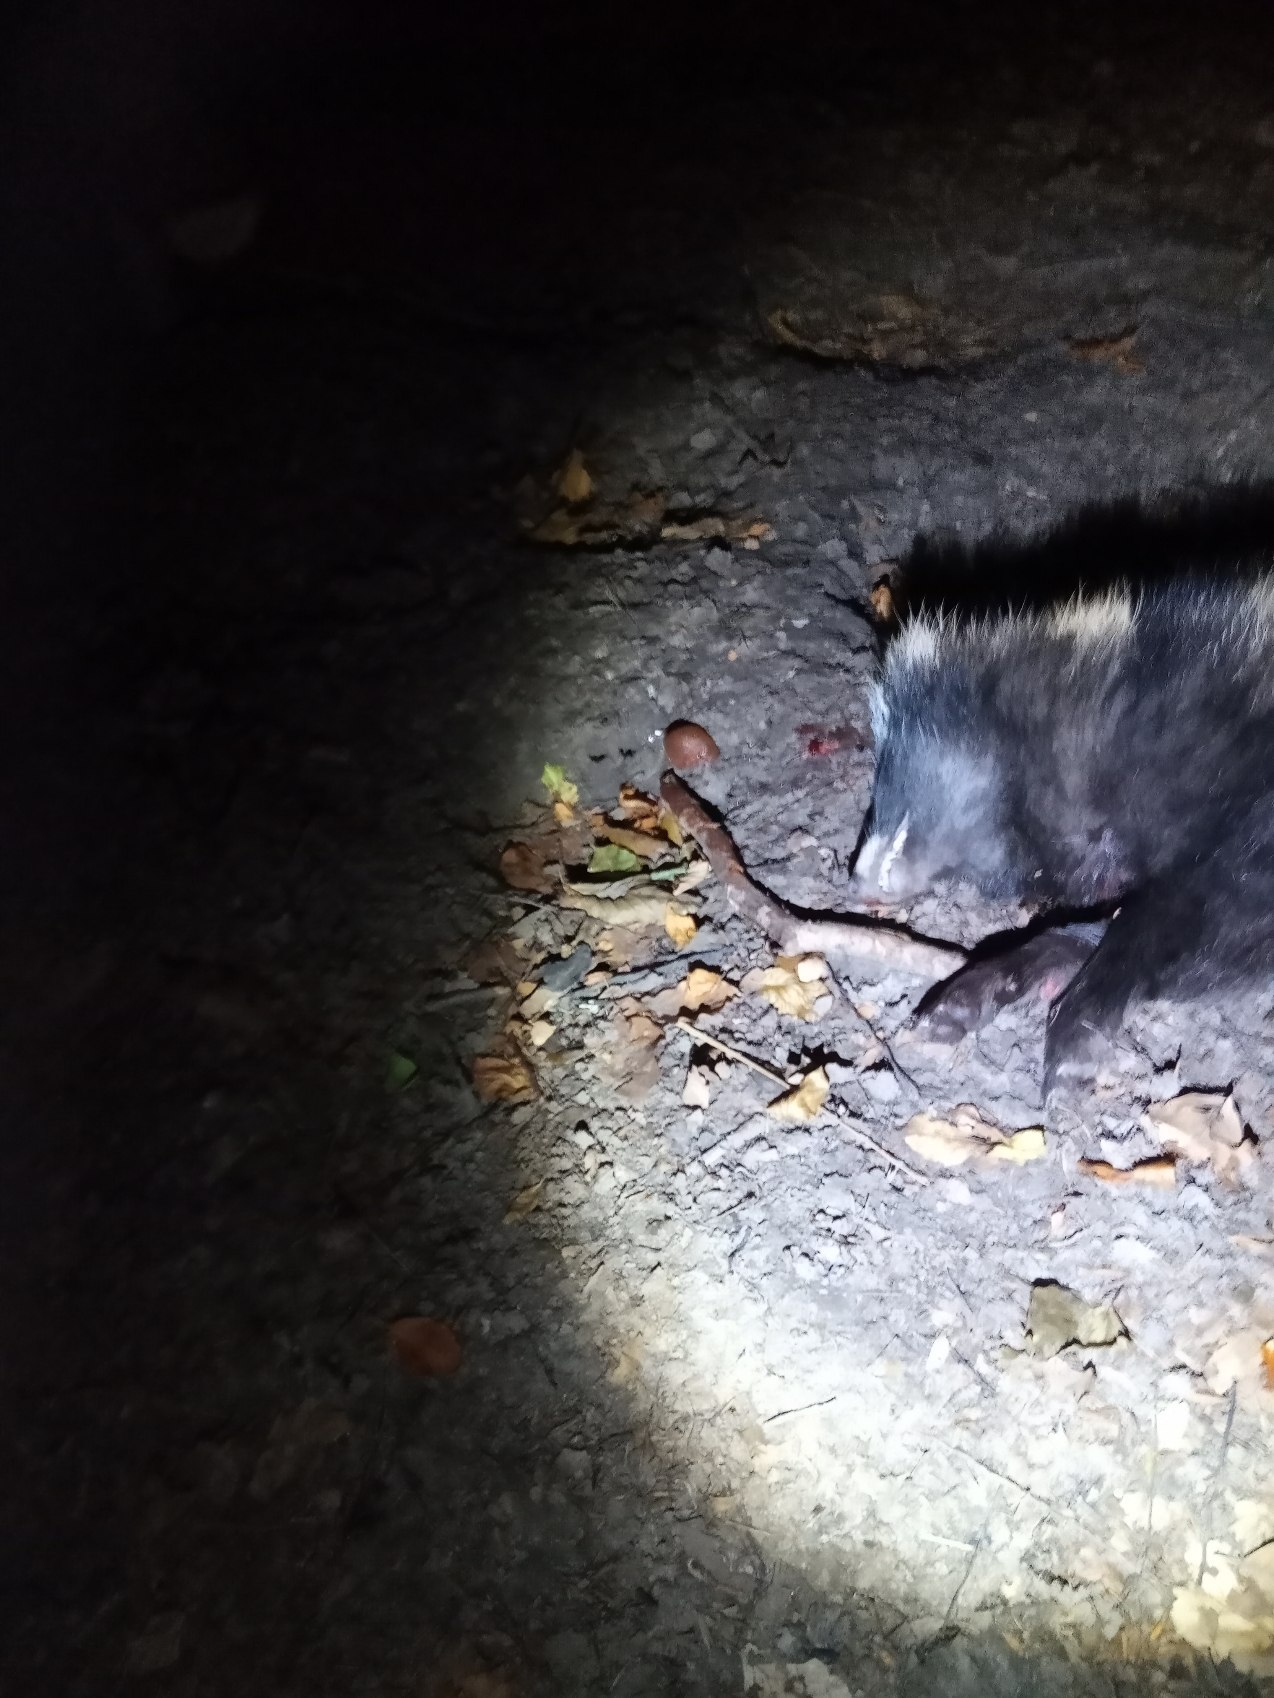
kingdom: Animalia
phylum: Chordata
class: Mammalia
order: Carnivora
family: Canidae
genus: Nyctereutes
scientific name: Nyctereutes procyonoides
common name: Mårhund
